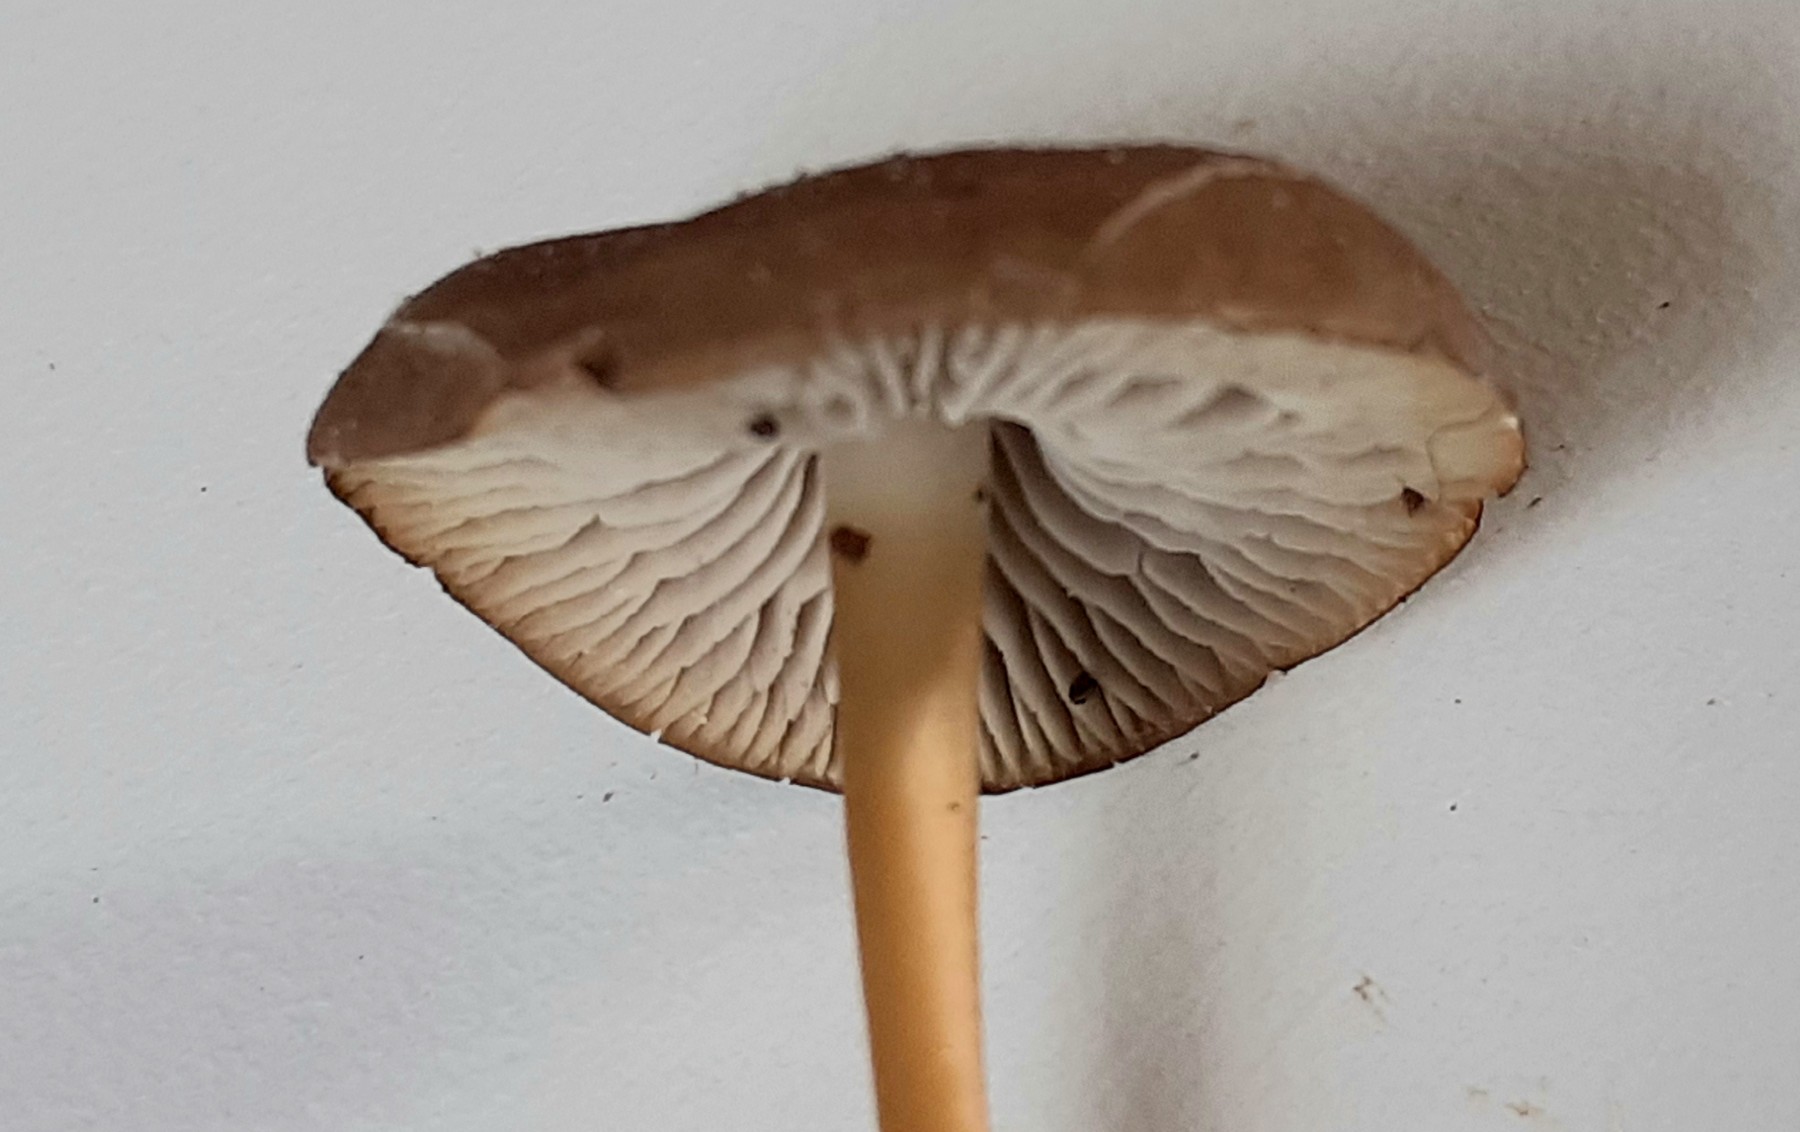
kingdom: Fungi
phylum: Basidiomycota
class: Agaricomycetes
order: Agaricales
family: Physalacriaceae
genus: Strobilurus
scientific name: Strobilurus stephanocystis
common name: fyrre-koglehat
